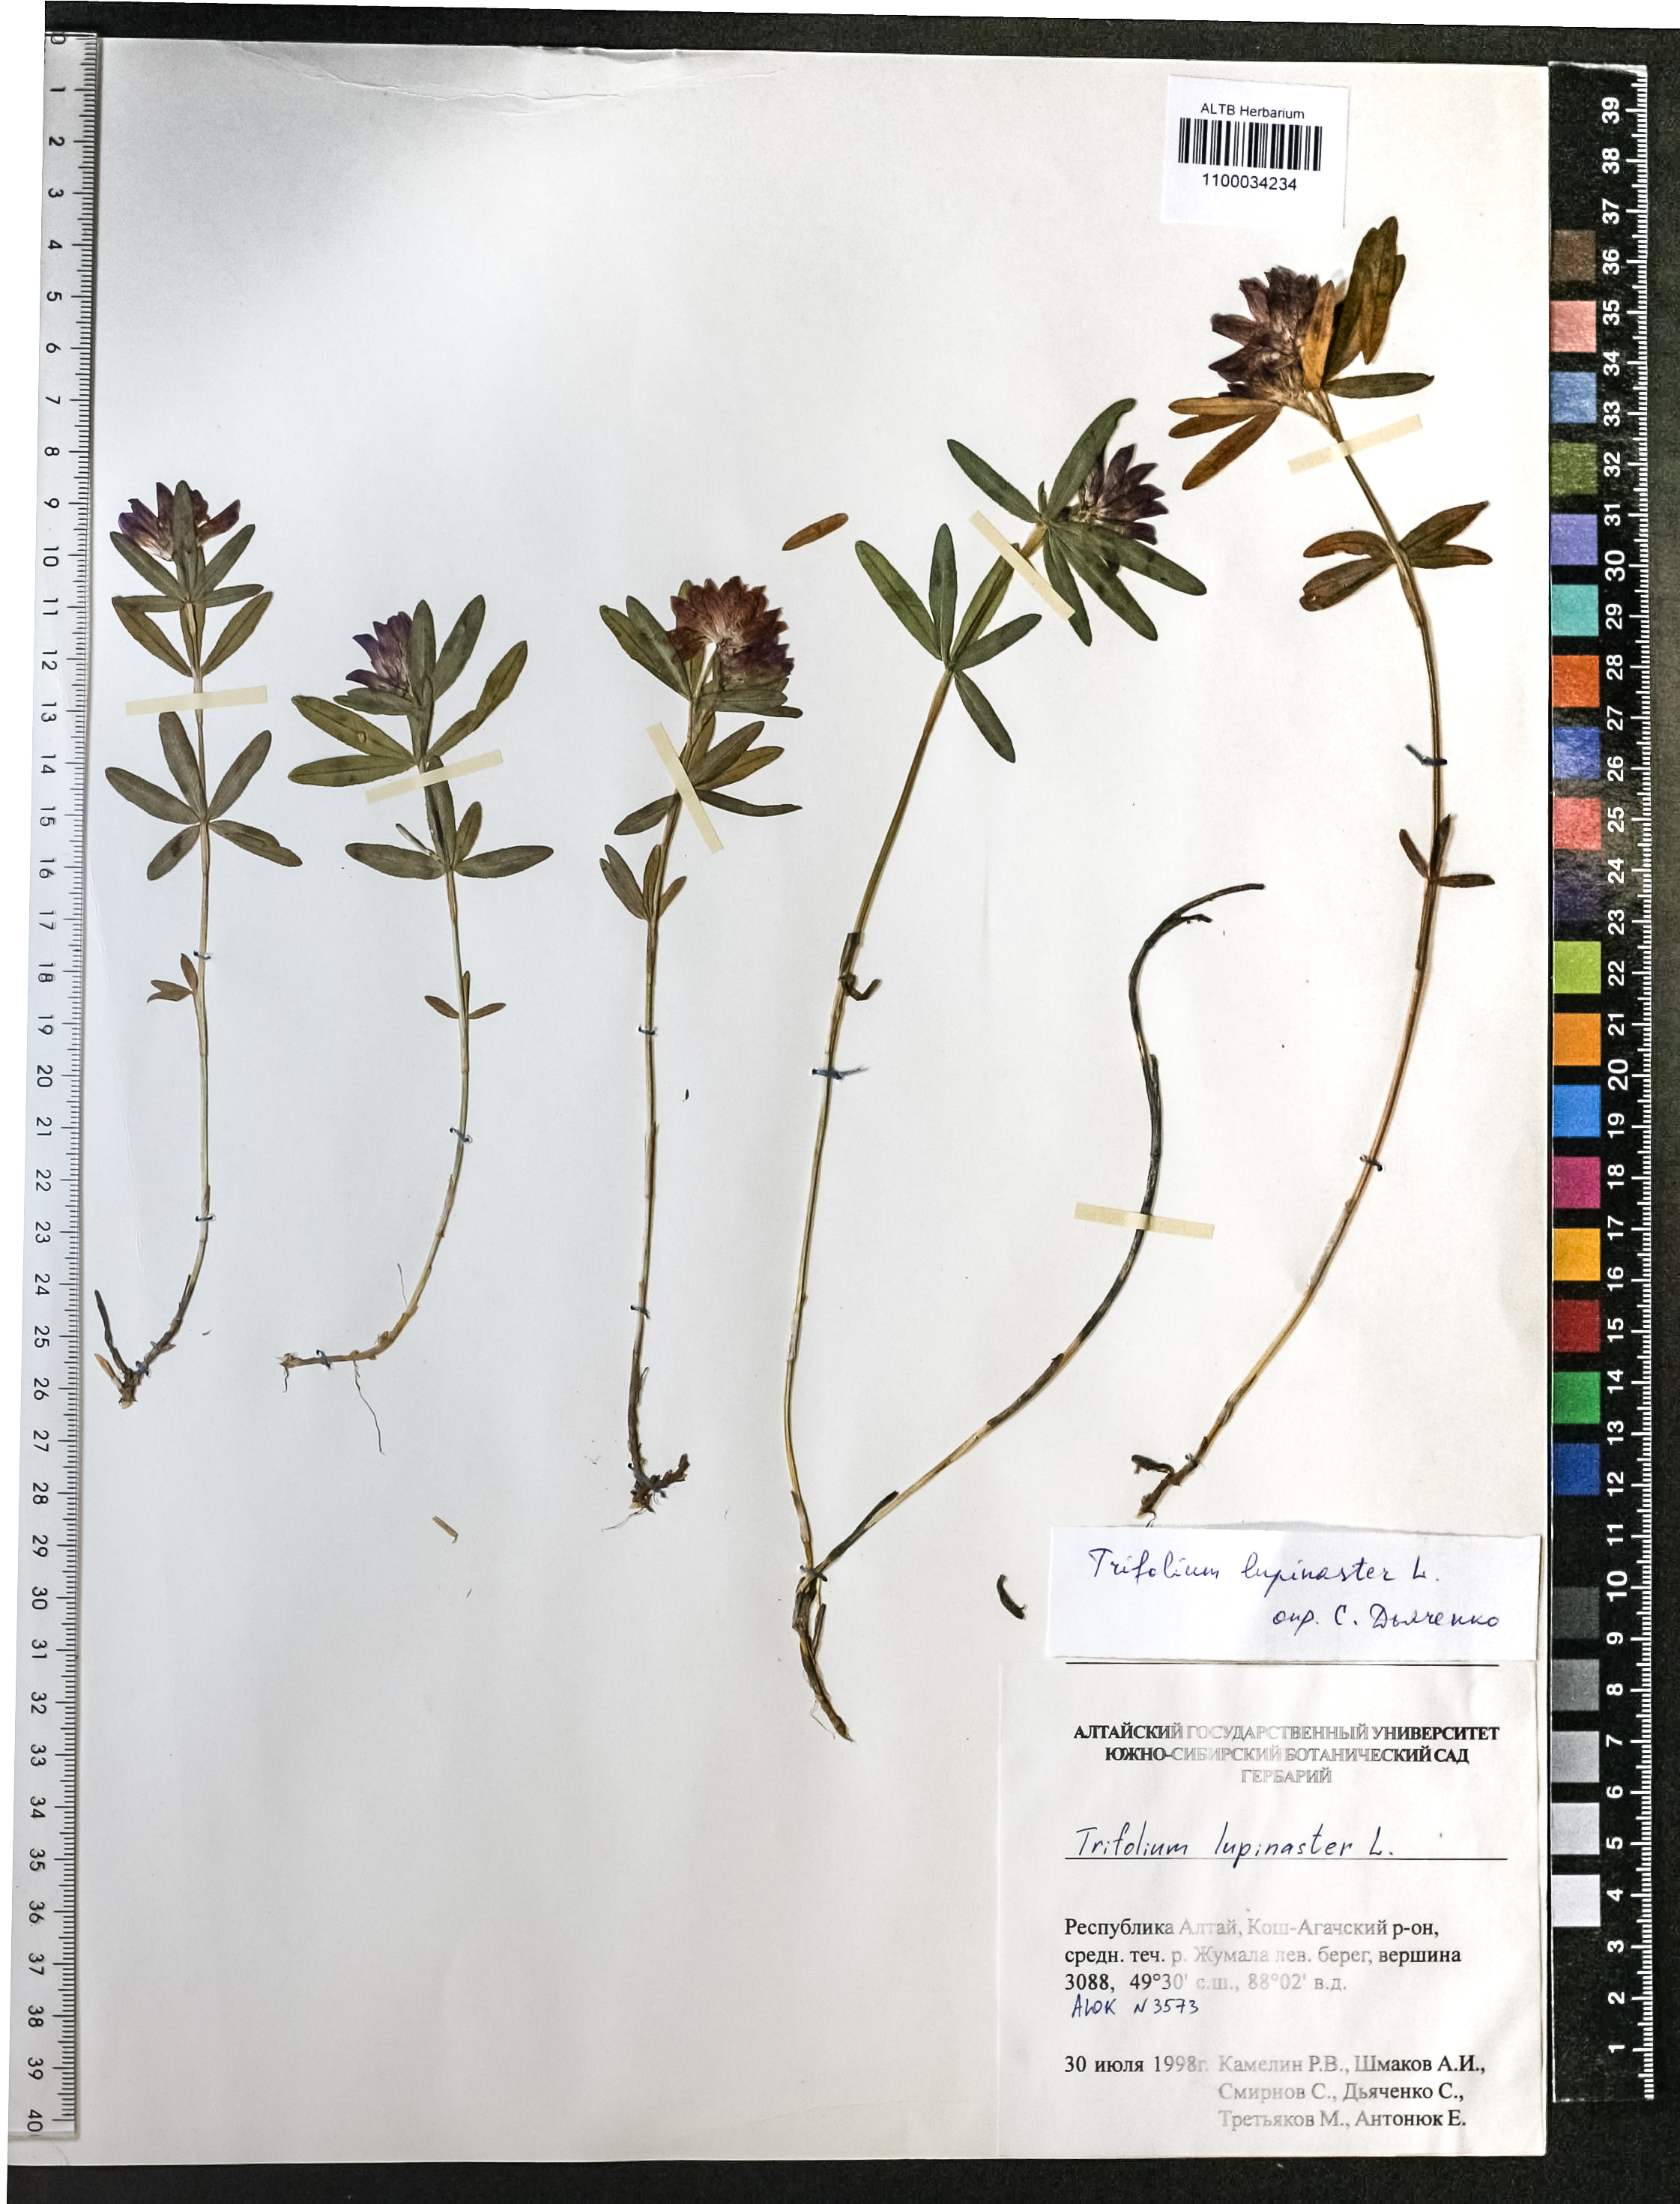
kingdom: Plantae
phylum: Tracheophyta
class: Magnoliopsida
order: Fabales
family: Fabaceae
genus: Trifolium
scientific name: Trifolium lupinaster
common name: Lupine clover
